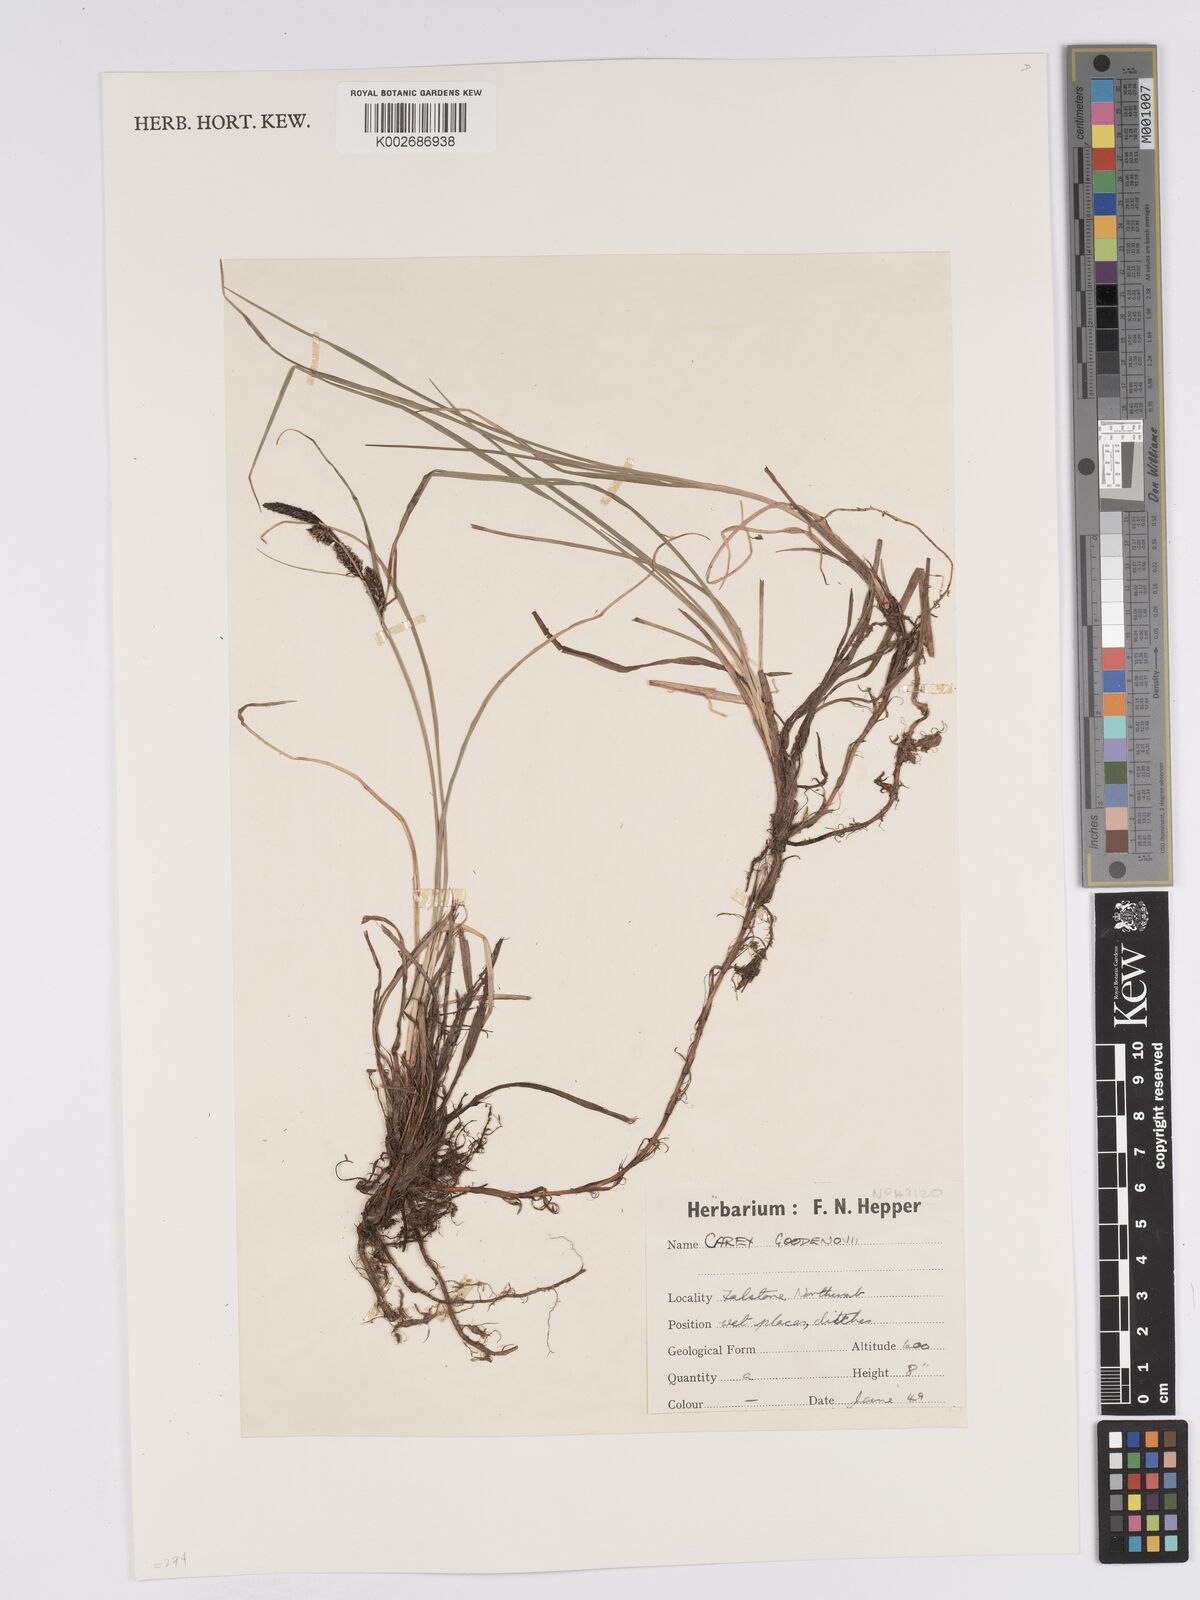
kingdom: Plantae
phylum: Tracheophyta
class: Liliopsida
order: Poales
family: Cyperaceae
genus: Carex
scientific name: Carex nigra
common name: Common sedge
